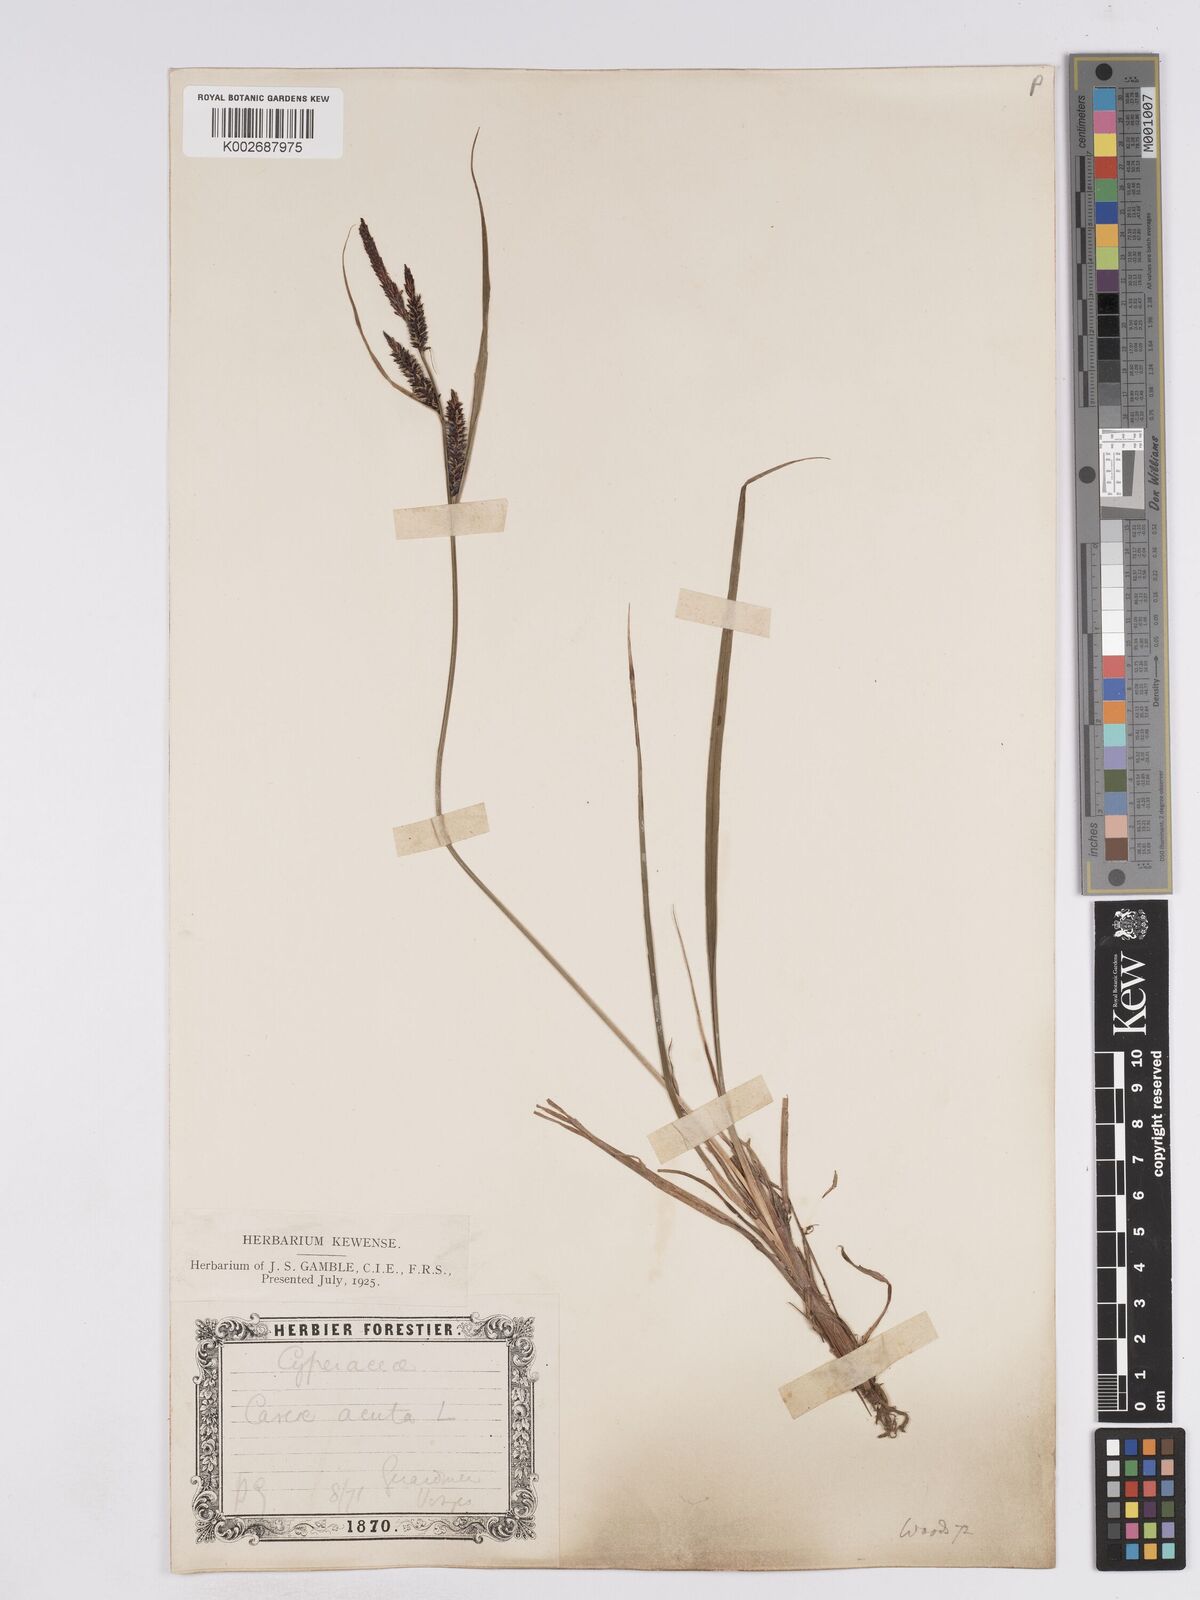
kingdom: Plantae
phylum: Tracheophyta
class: Liliopsida
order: Poales
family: Cyperaceae
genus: Carex
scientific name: Carex acuta
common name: Slender tufted-sedge
